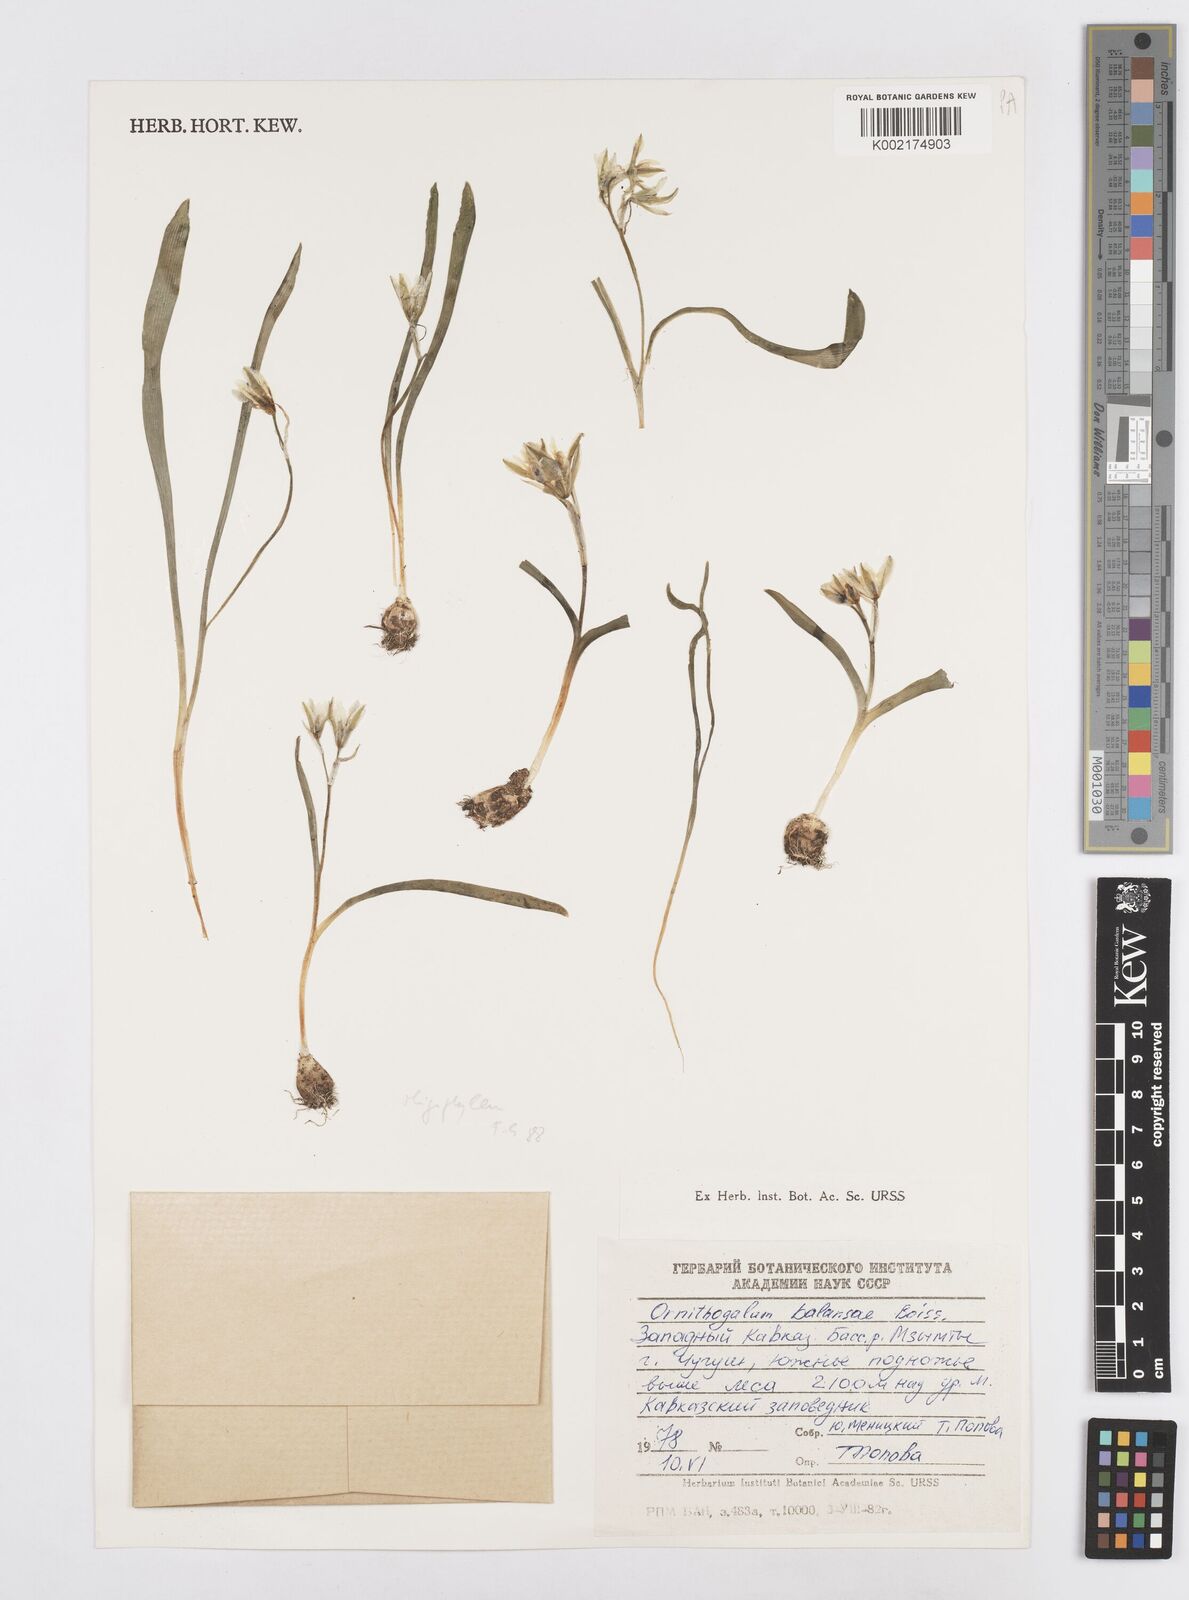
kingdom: Plantae
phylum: Tracheophyta
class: Liliopsida
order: Asparagales
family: Asparagaceae
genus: Ornithogalum
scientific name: Ornithogalum balansae
